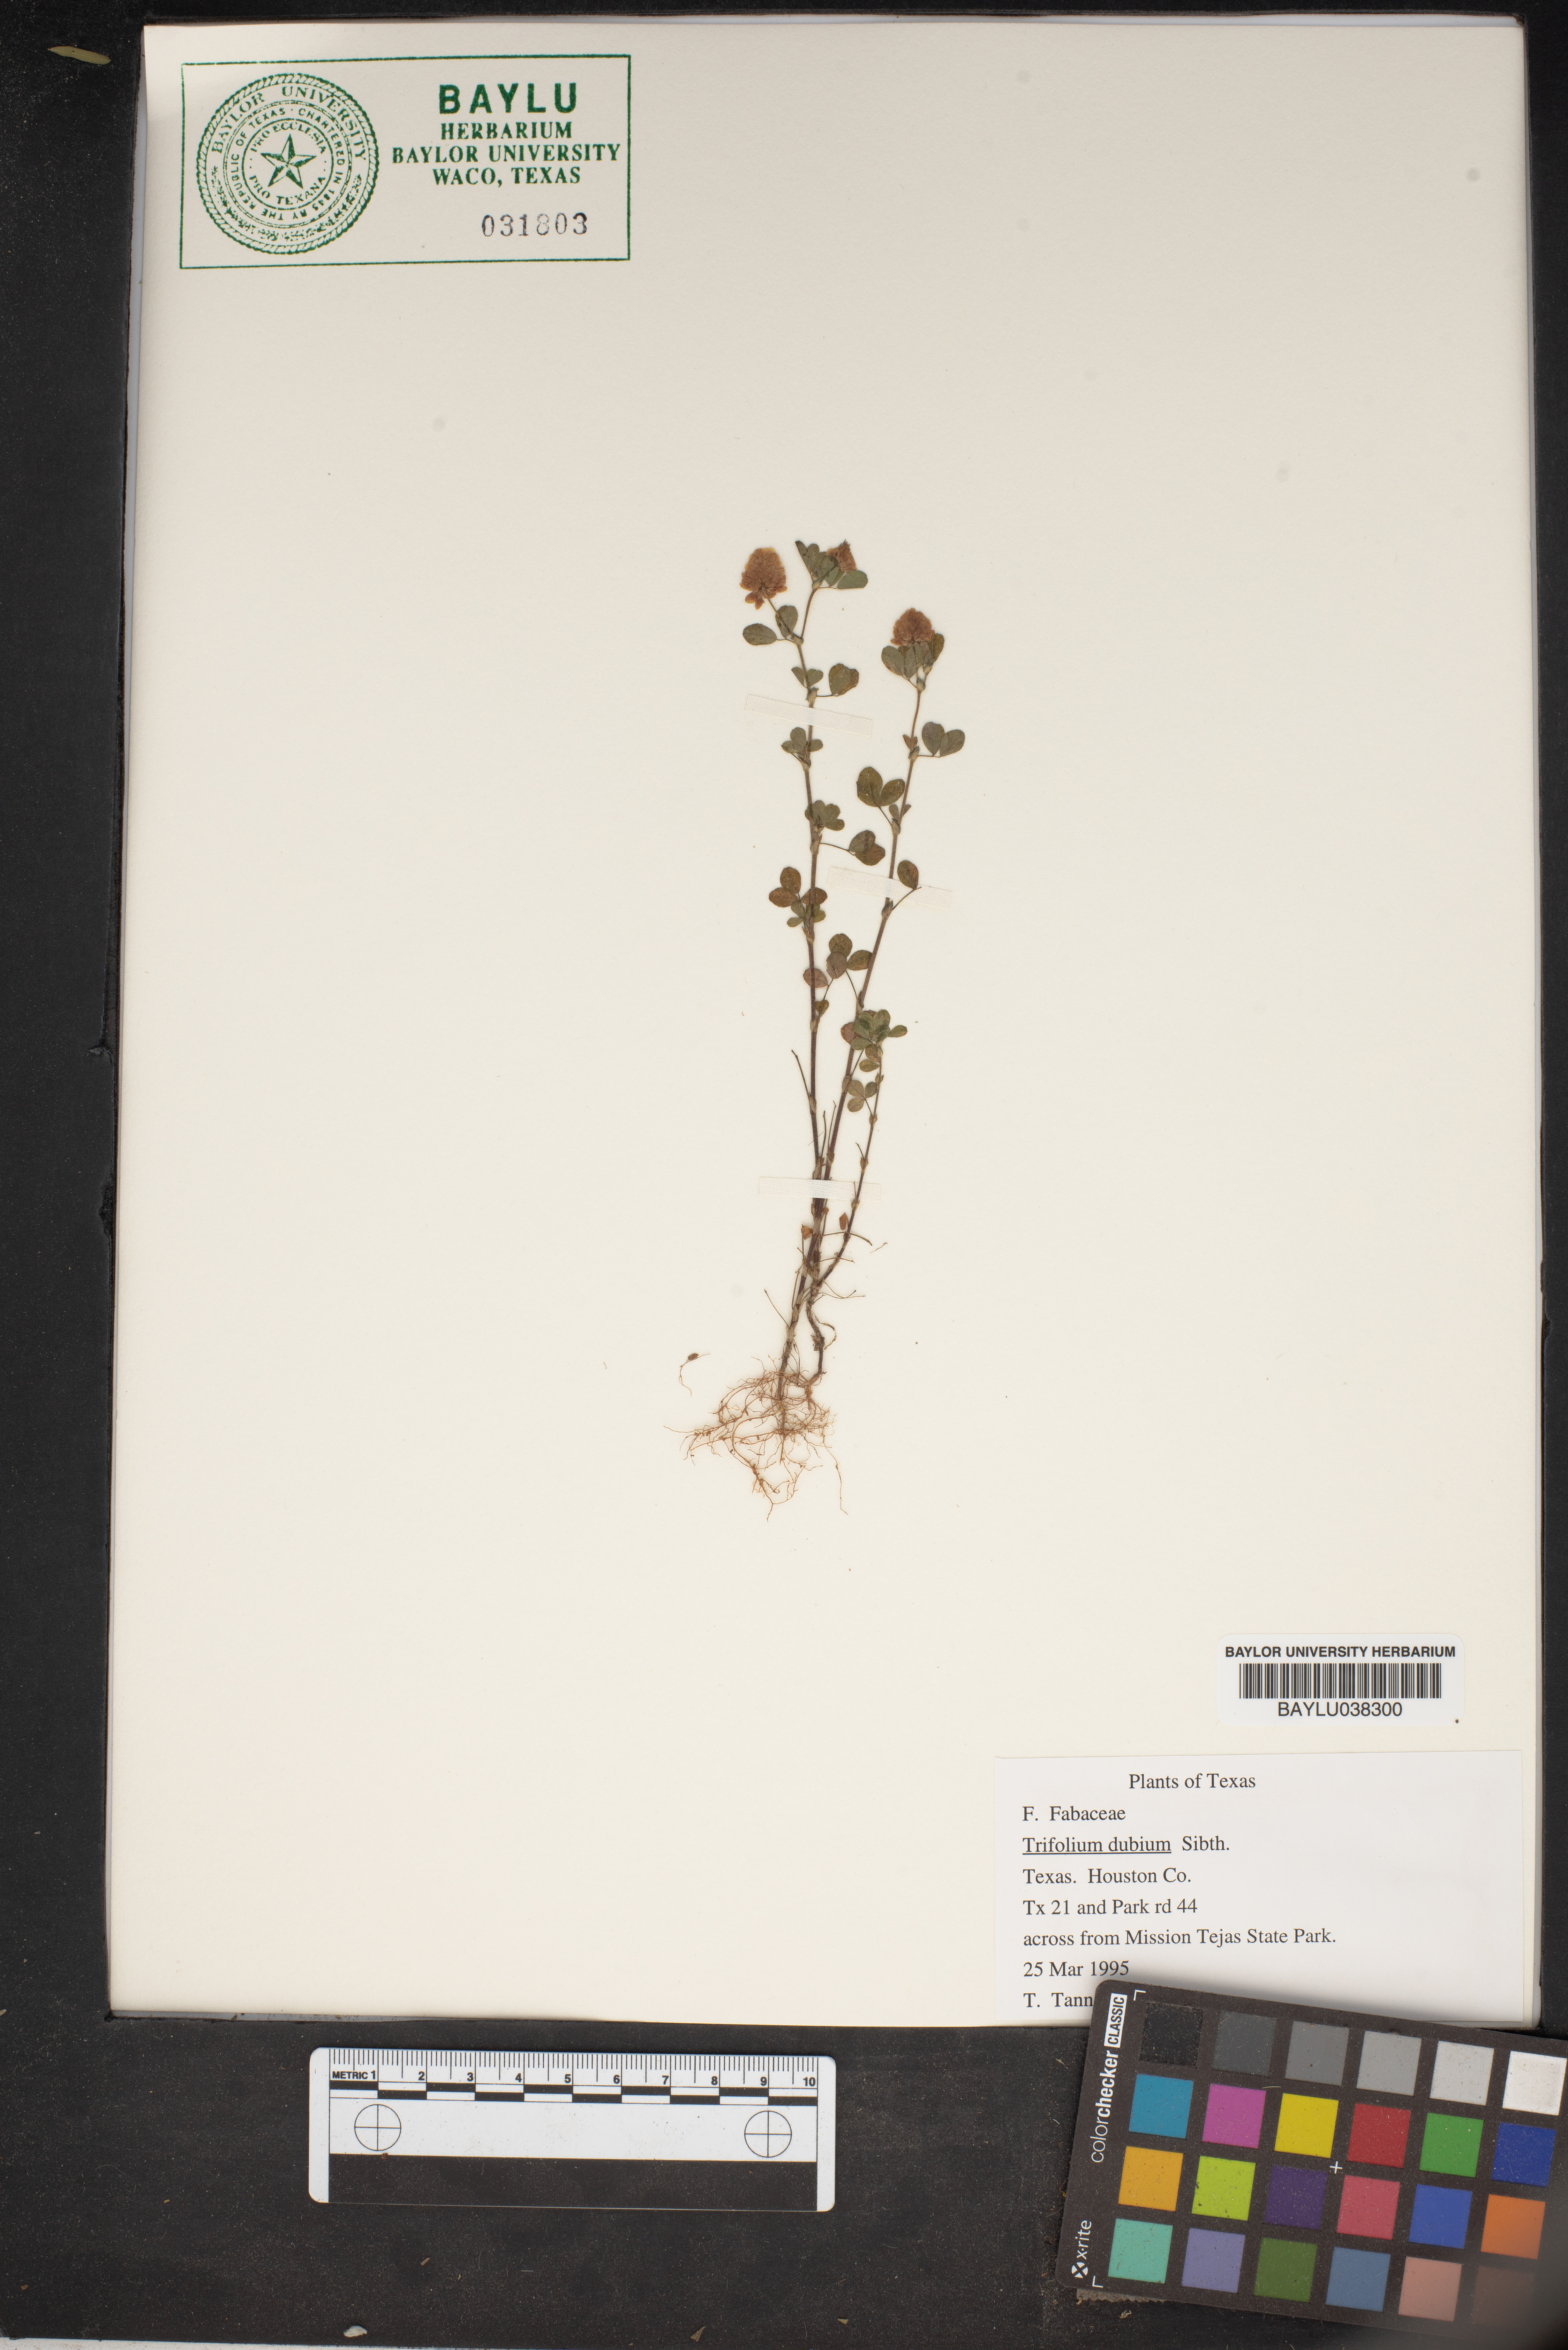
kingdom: Plantae
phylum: Tracheophyta
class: Magnoliopsida
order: Fabales
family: Fabaceae
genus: Trifolium
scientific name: Trifolium dubium
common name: Suckling clover
